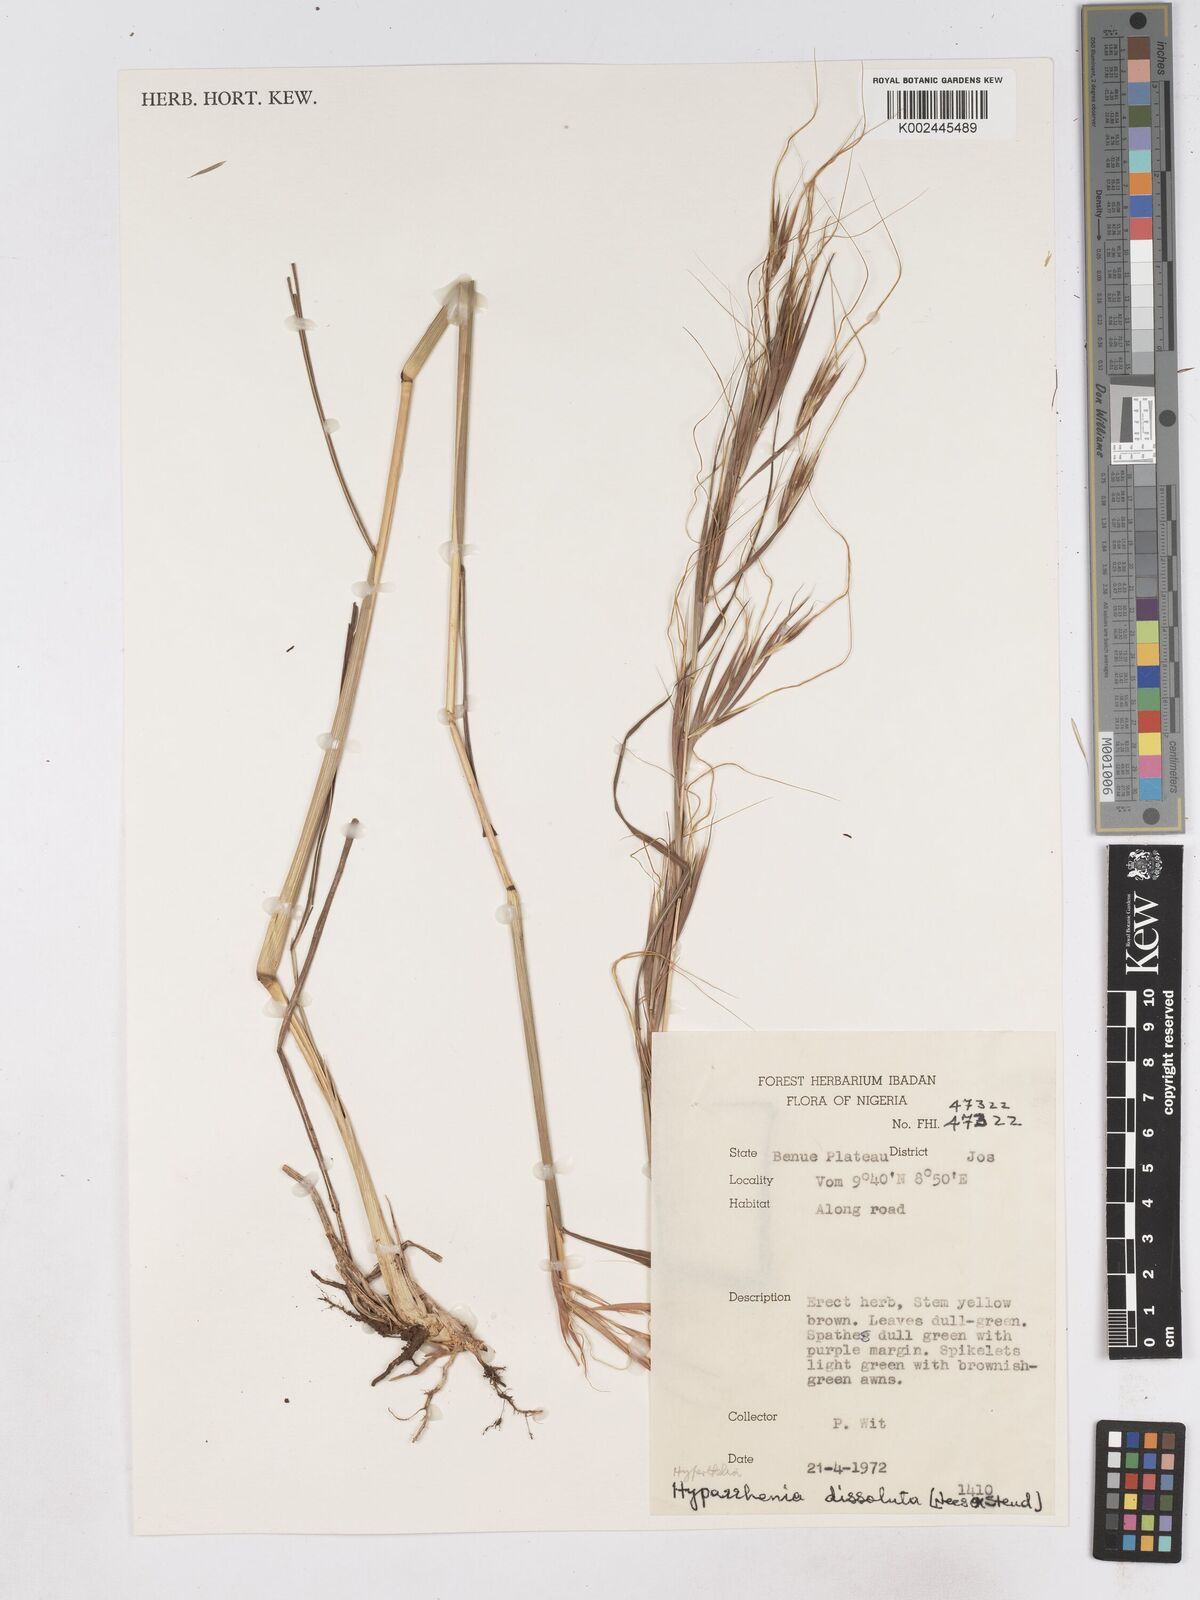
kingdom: Plantae
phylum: Tracheophyta
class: Liliopsida
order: Poales
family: Poaceae
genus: Hyperthelia
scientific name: Hyperthelia dissoluta
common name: Yellow thatching grass
